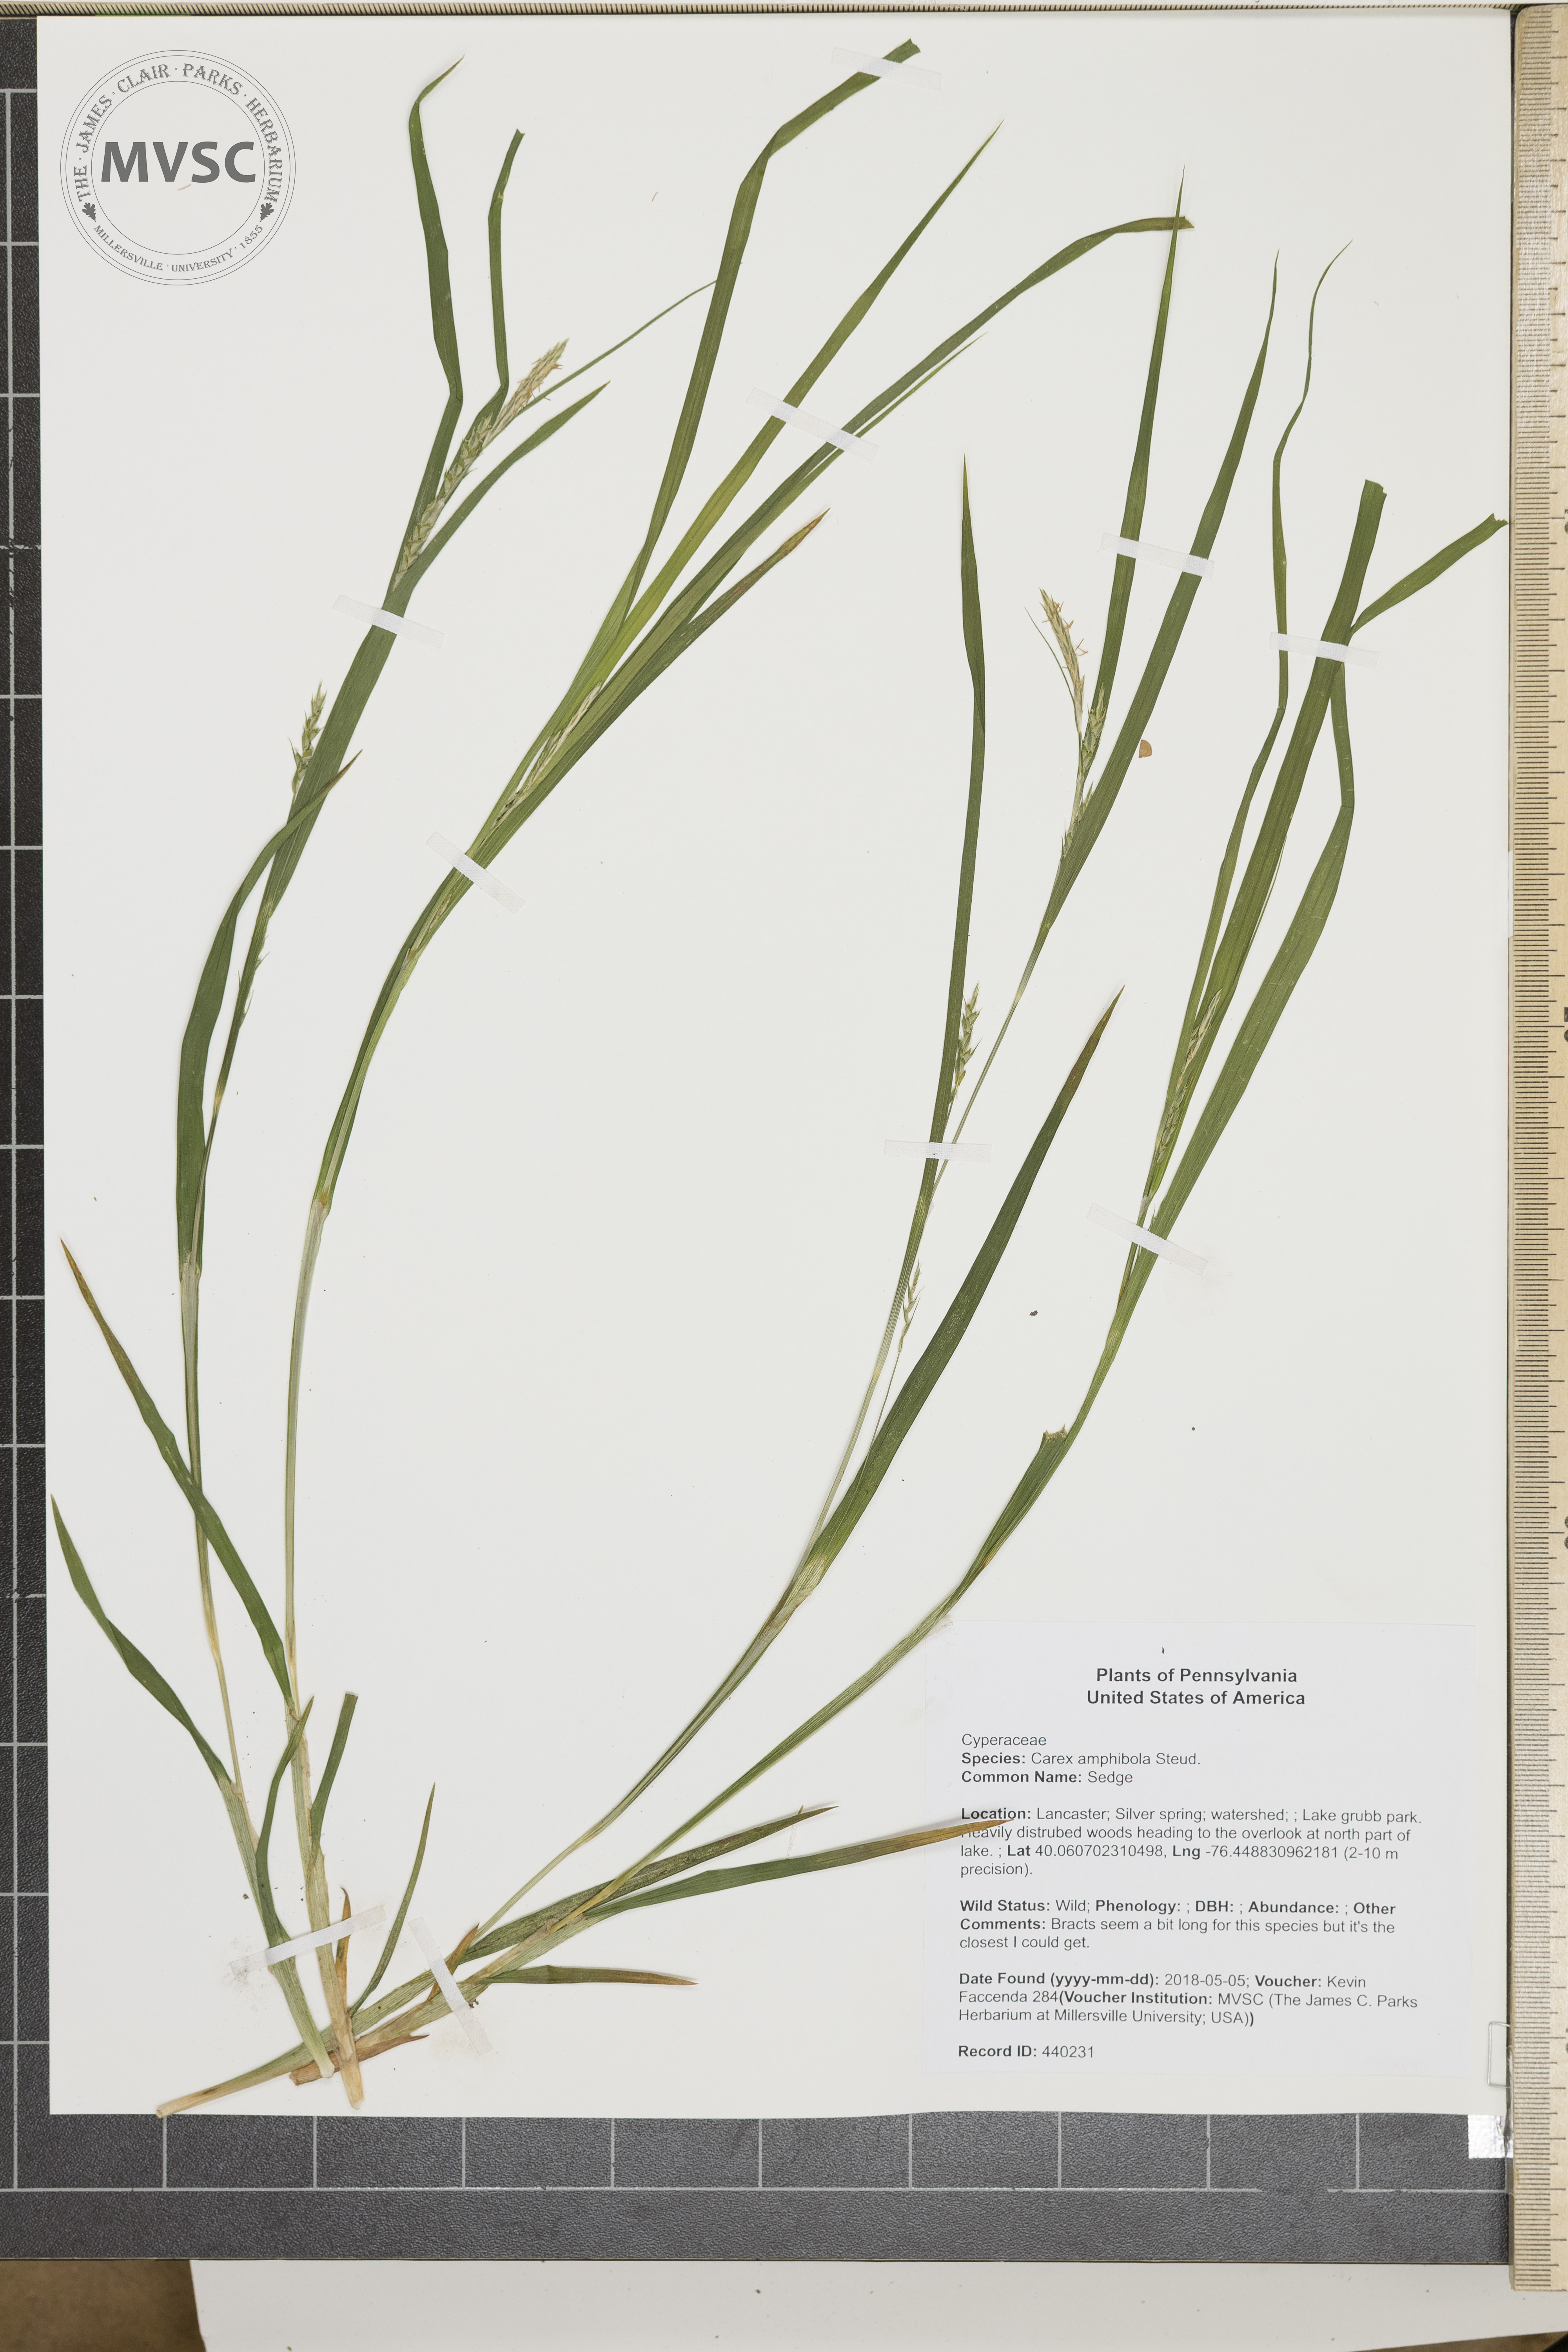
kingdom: Plantae
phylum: Tracheophyta
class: Liliopsida
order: Poales
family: Cyperaceae
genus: Carex
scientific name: Carex amphibola
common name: Sedge
